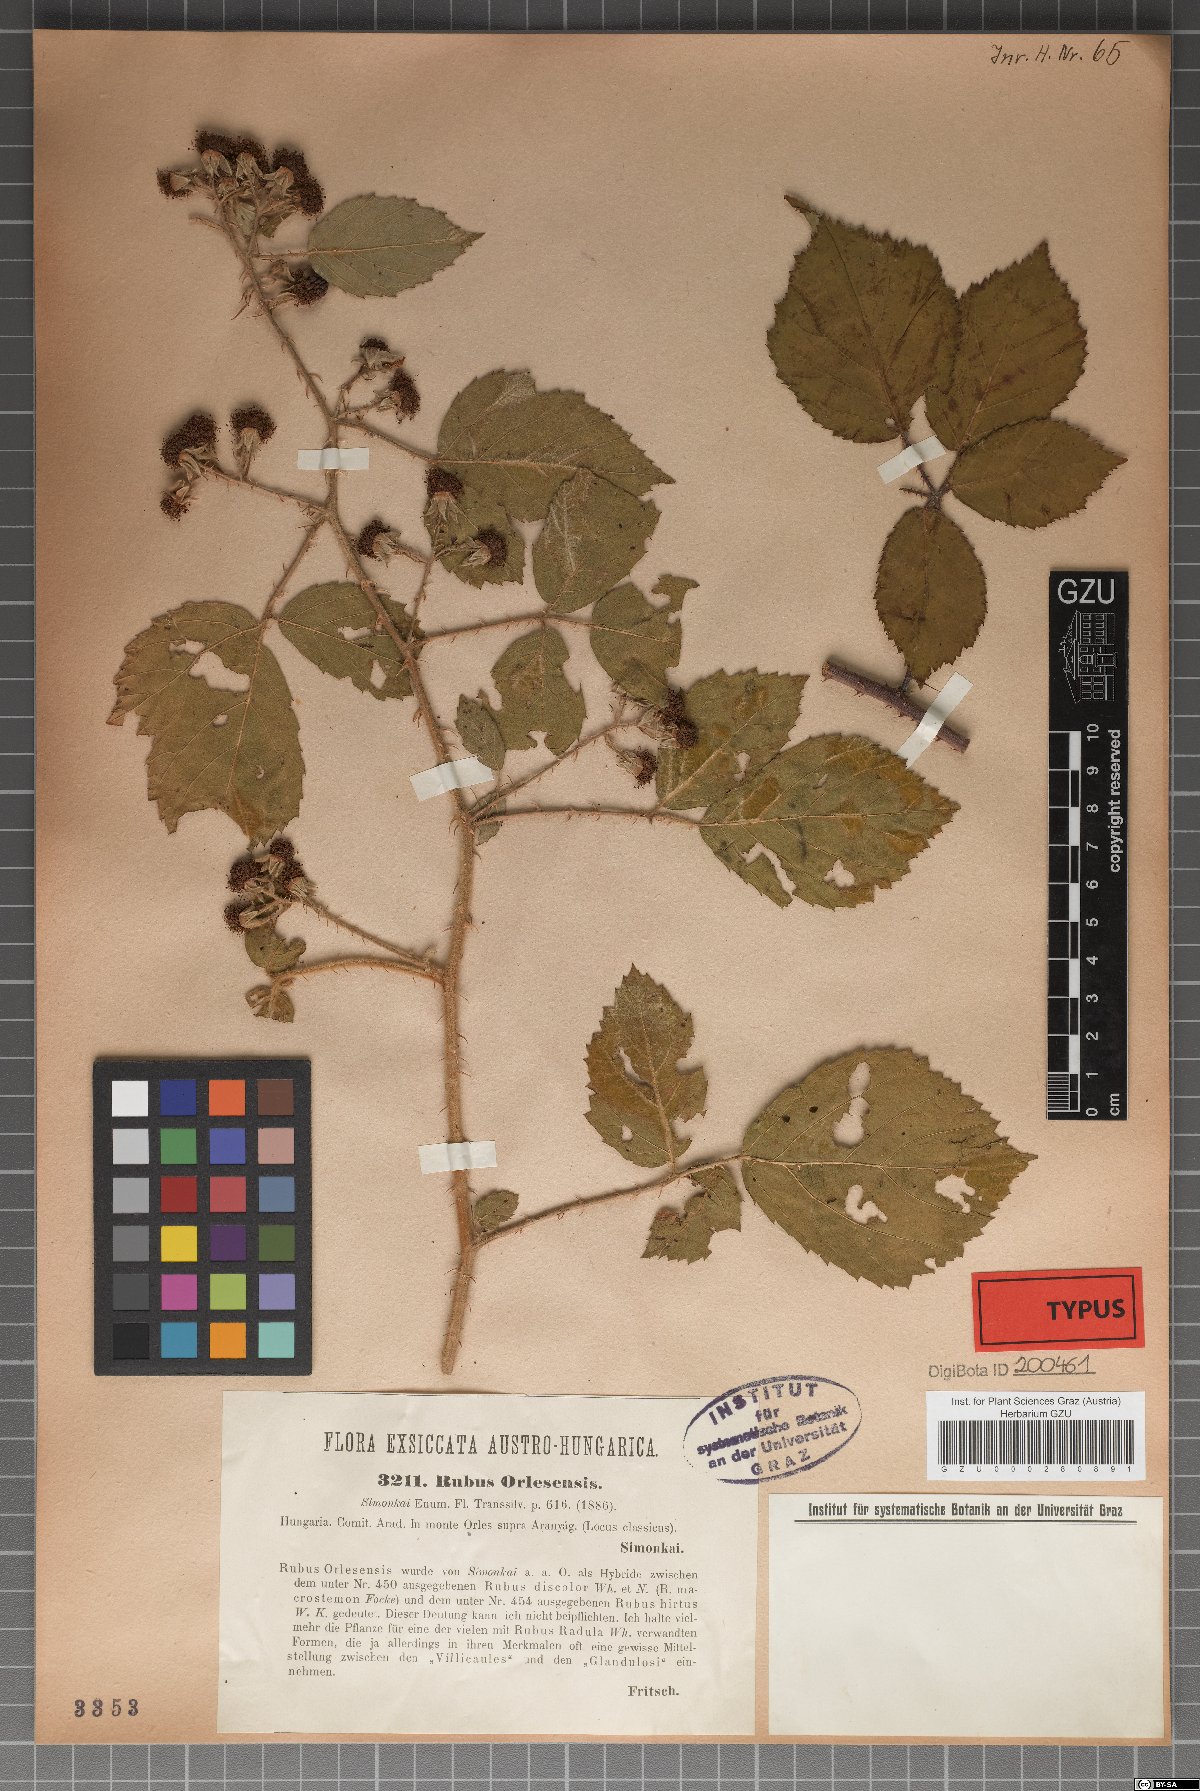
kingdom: Plantae
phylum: Tracheophyta
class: Magnoliopsida
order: Rosales
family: Rosaceae
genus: Rubus
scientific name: Rubus radula
